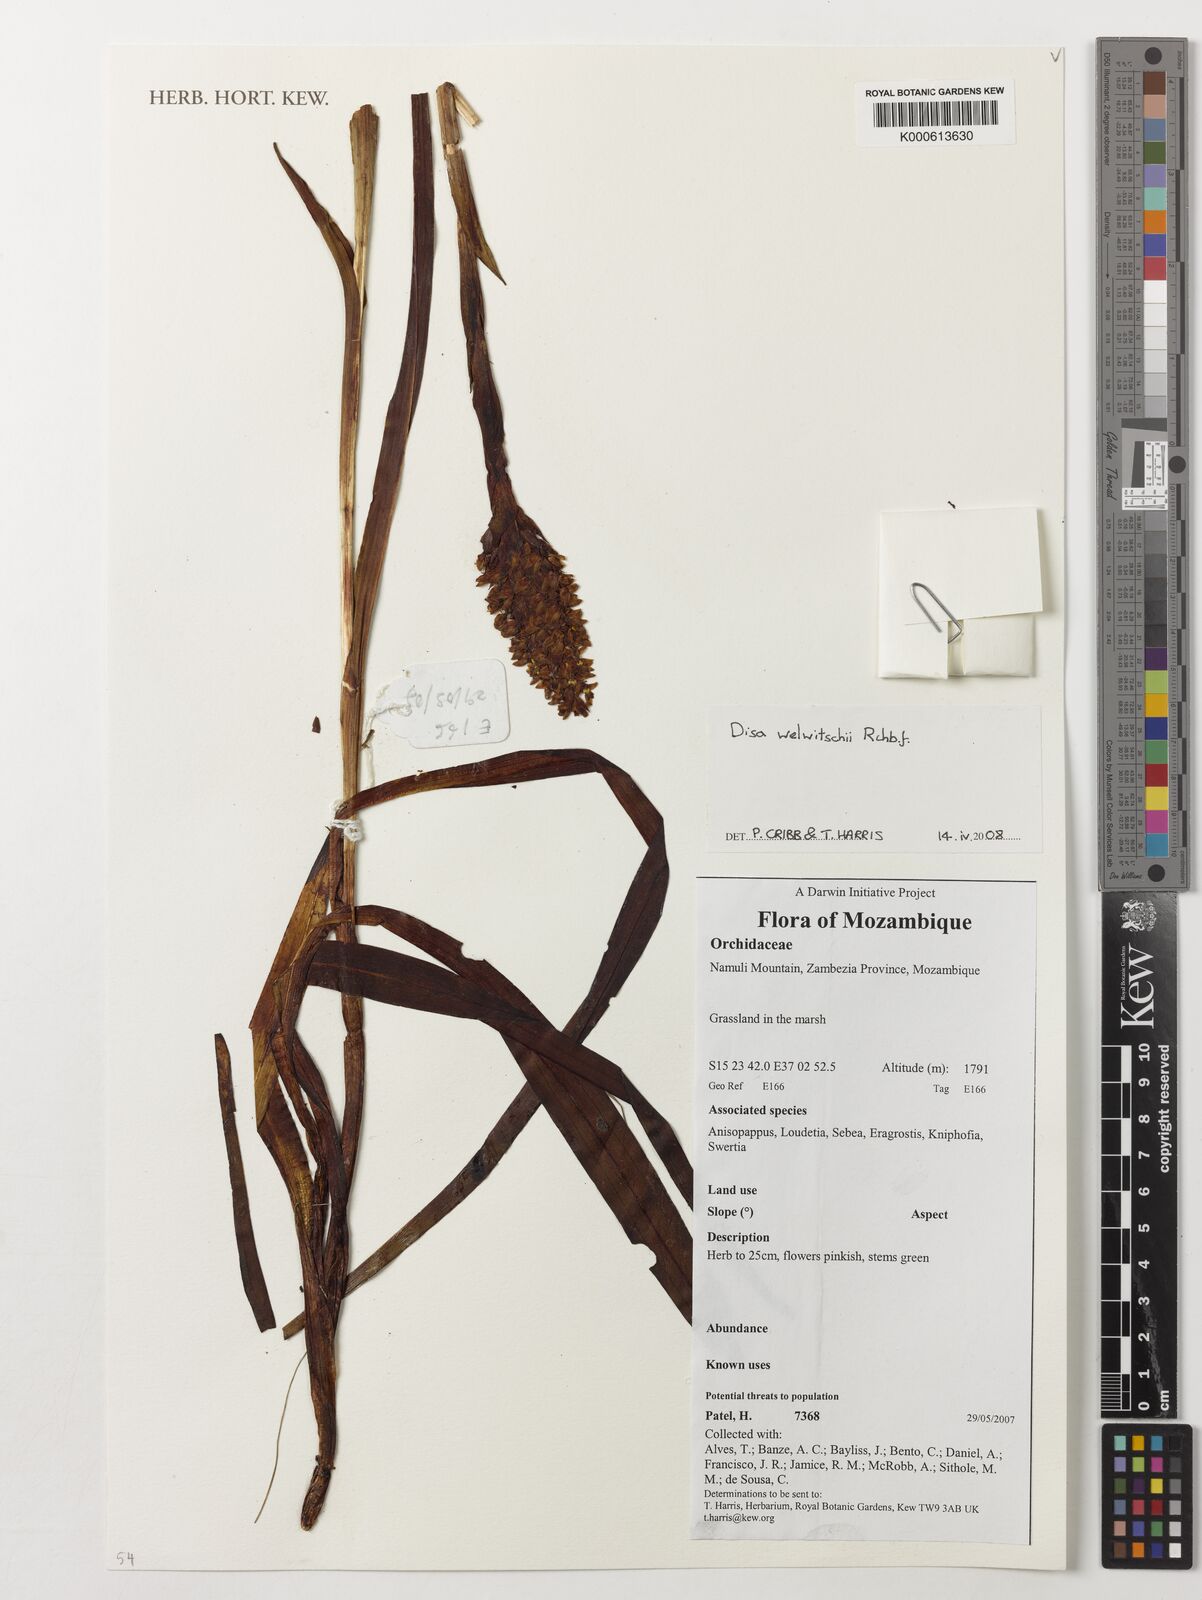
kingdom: Plantae
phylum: Tracheophyta
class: Liliopsida
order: Asparagales
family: Orchidaceae
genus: Disa
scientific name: Disa welwitschii
